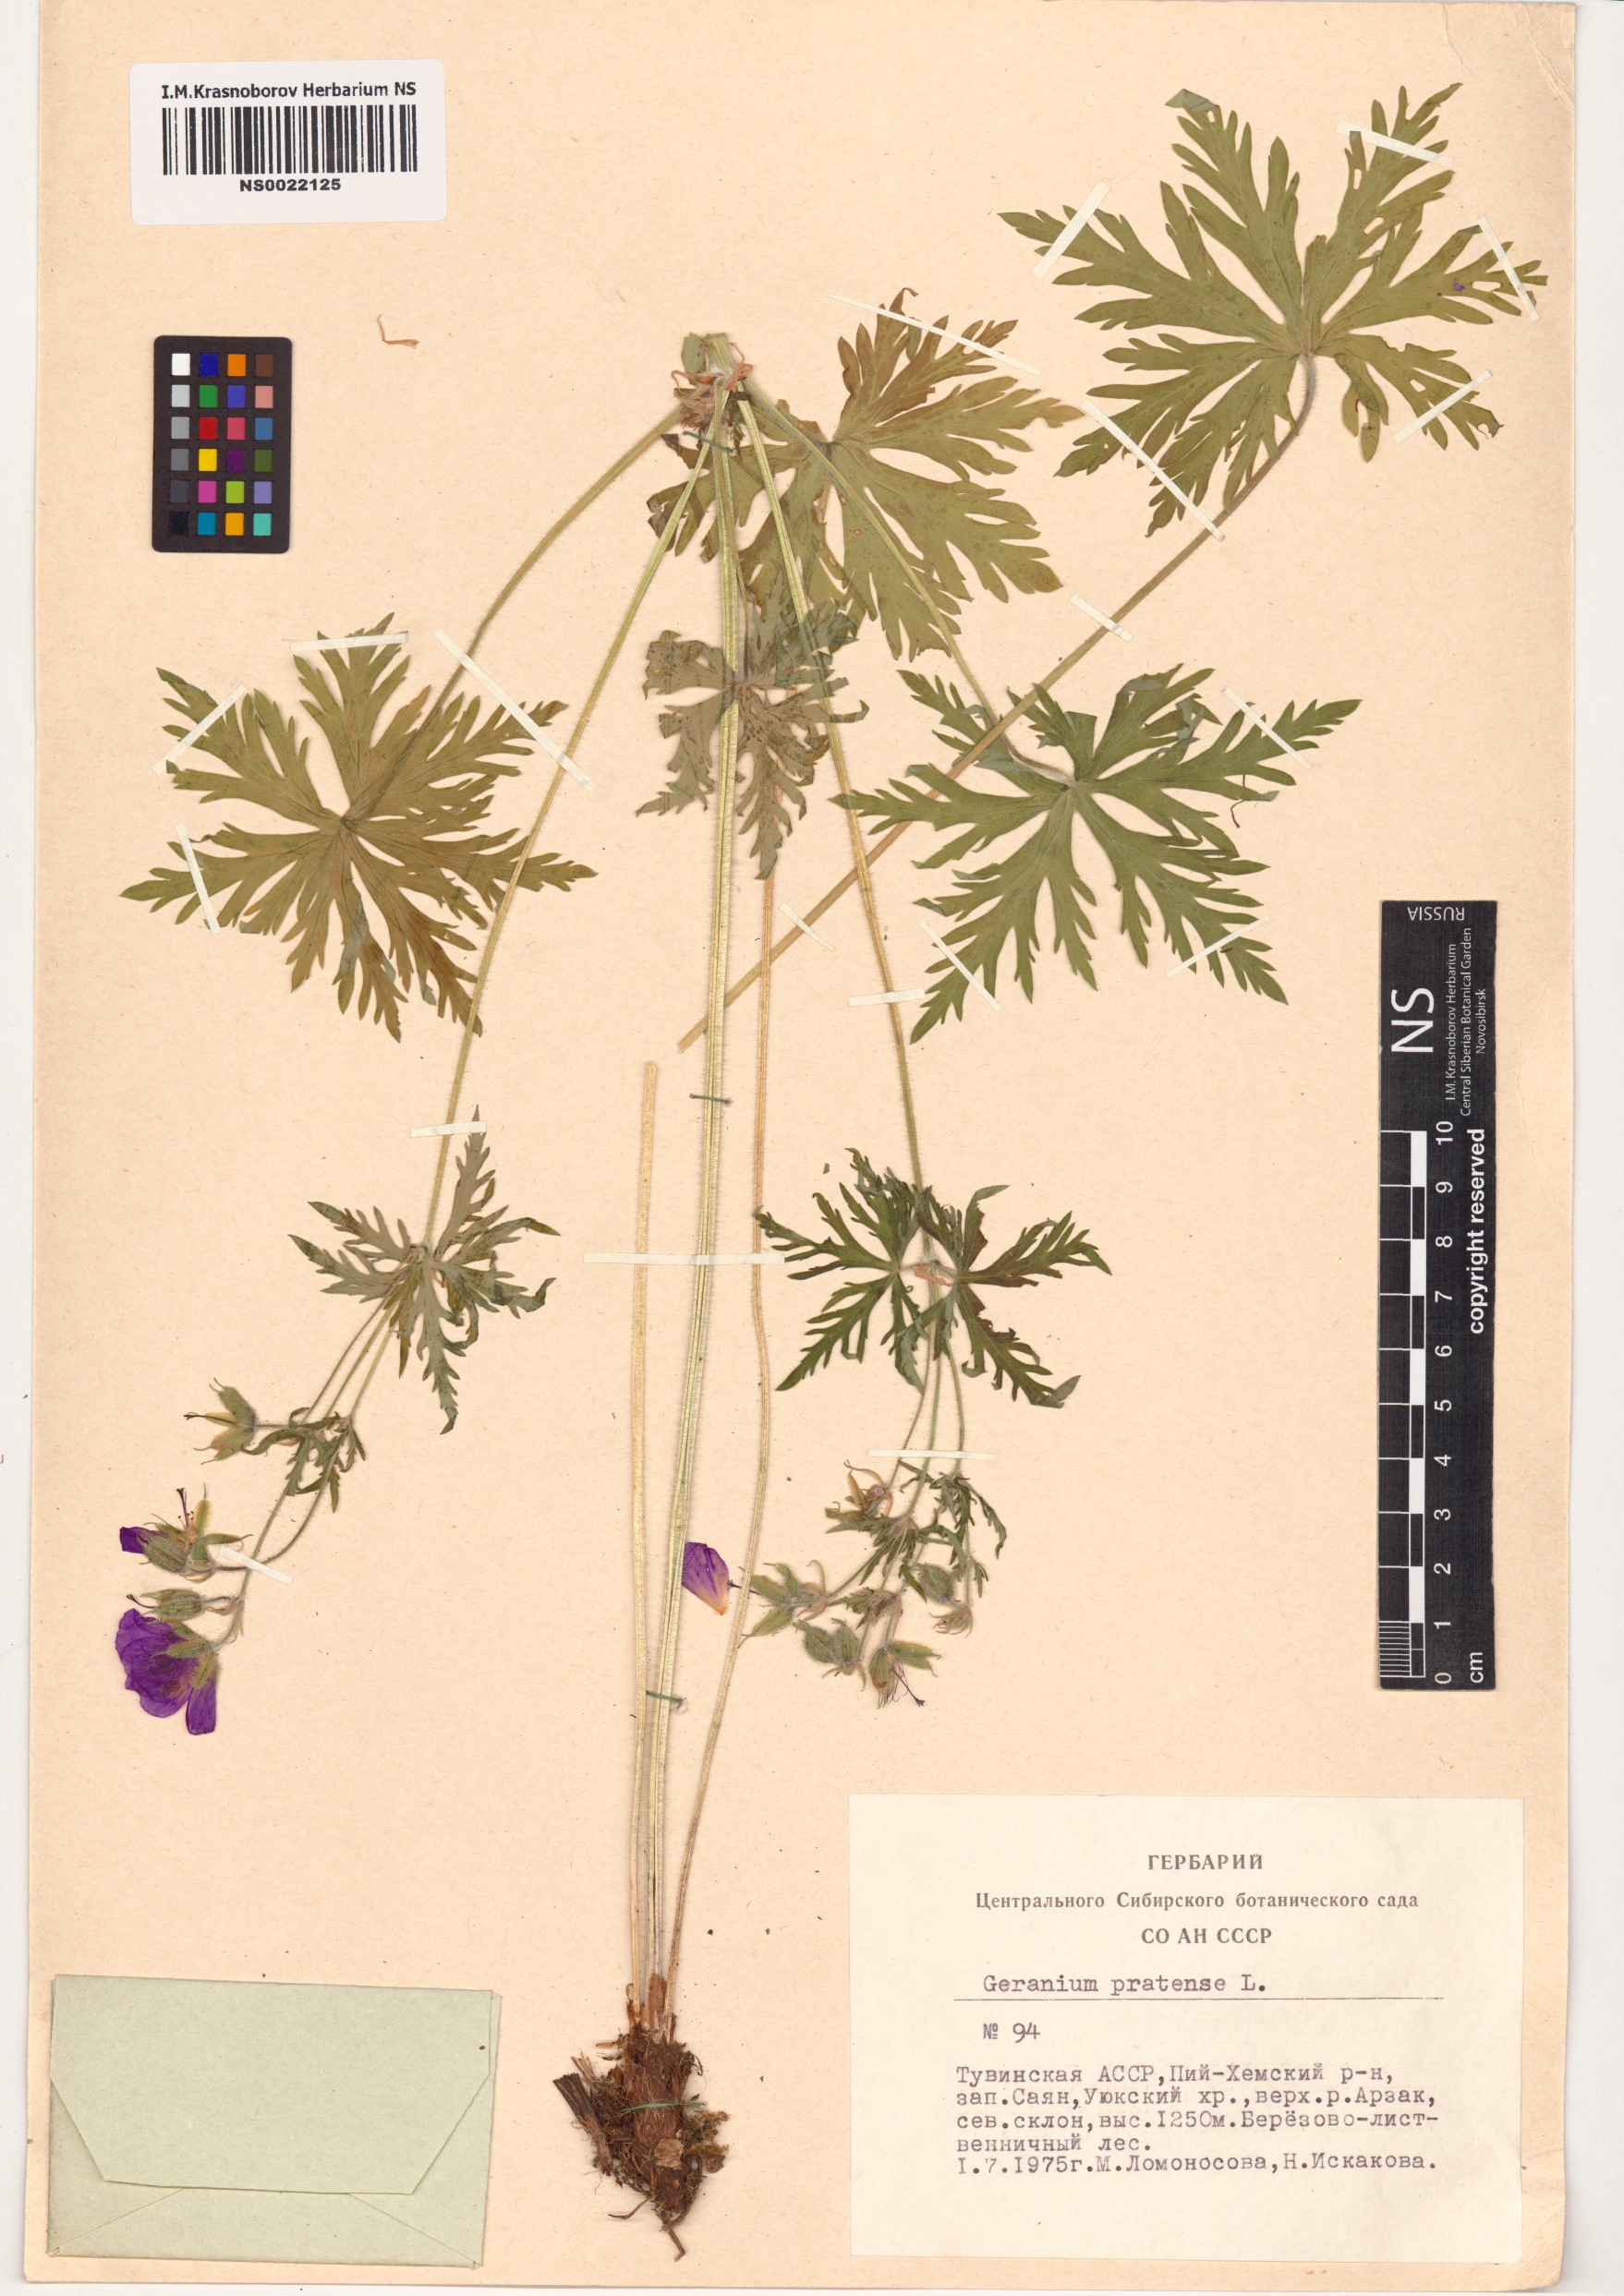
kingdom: Plantae
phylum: Tracheophyta
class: Magnoliopsida
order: Geraniales
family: Geraniaceae
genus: Geranium
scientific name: Geranium pratense
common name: Meadow crane's-bill
